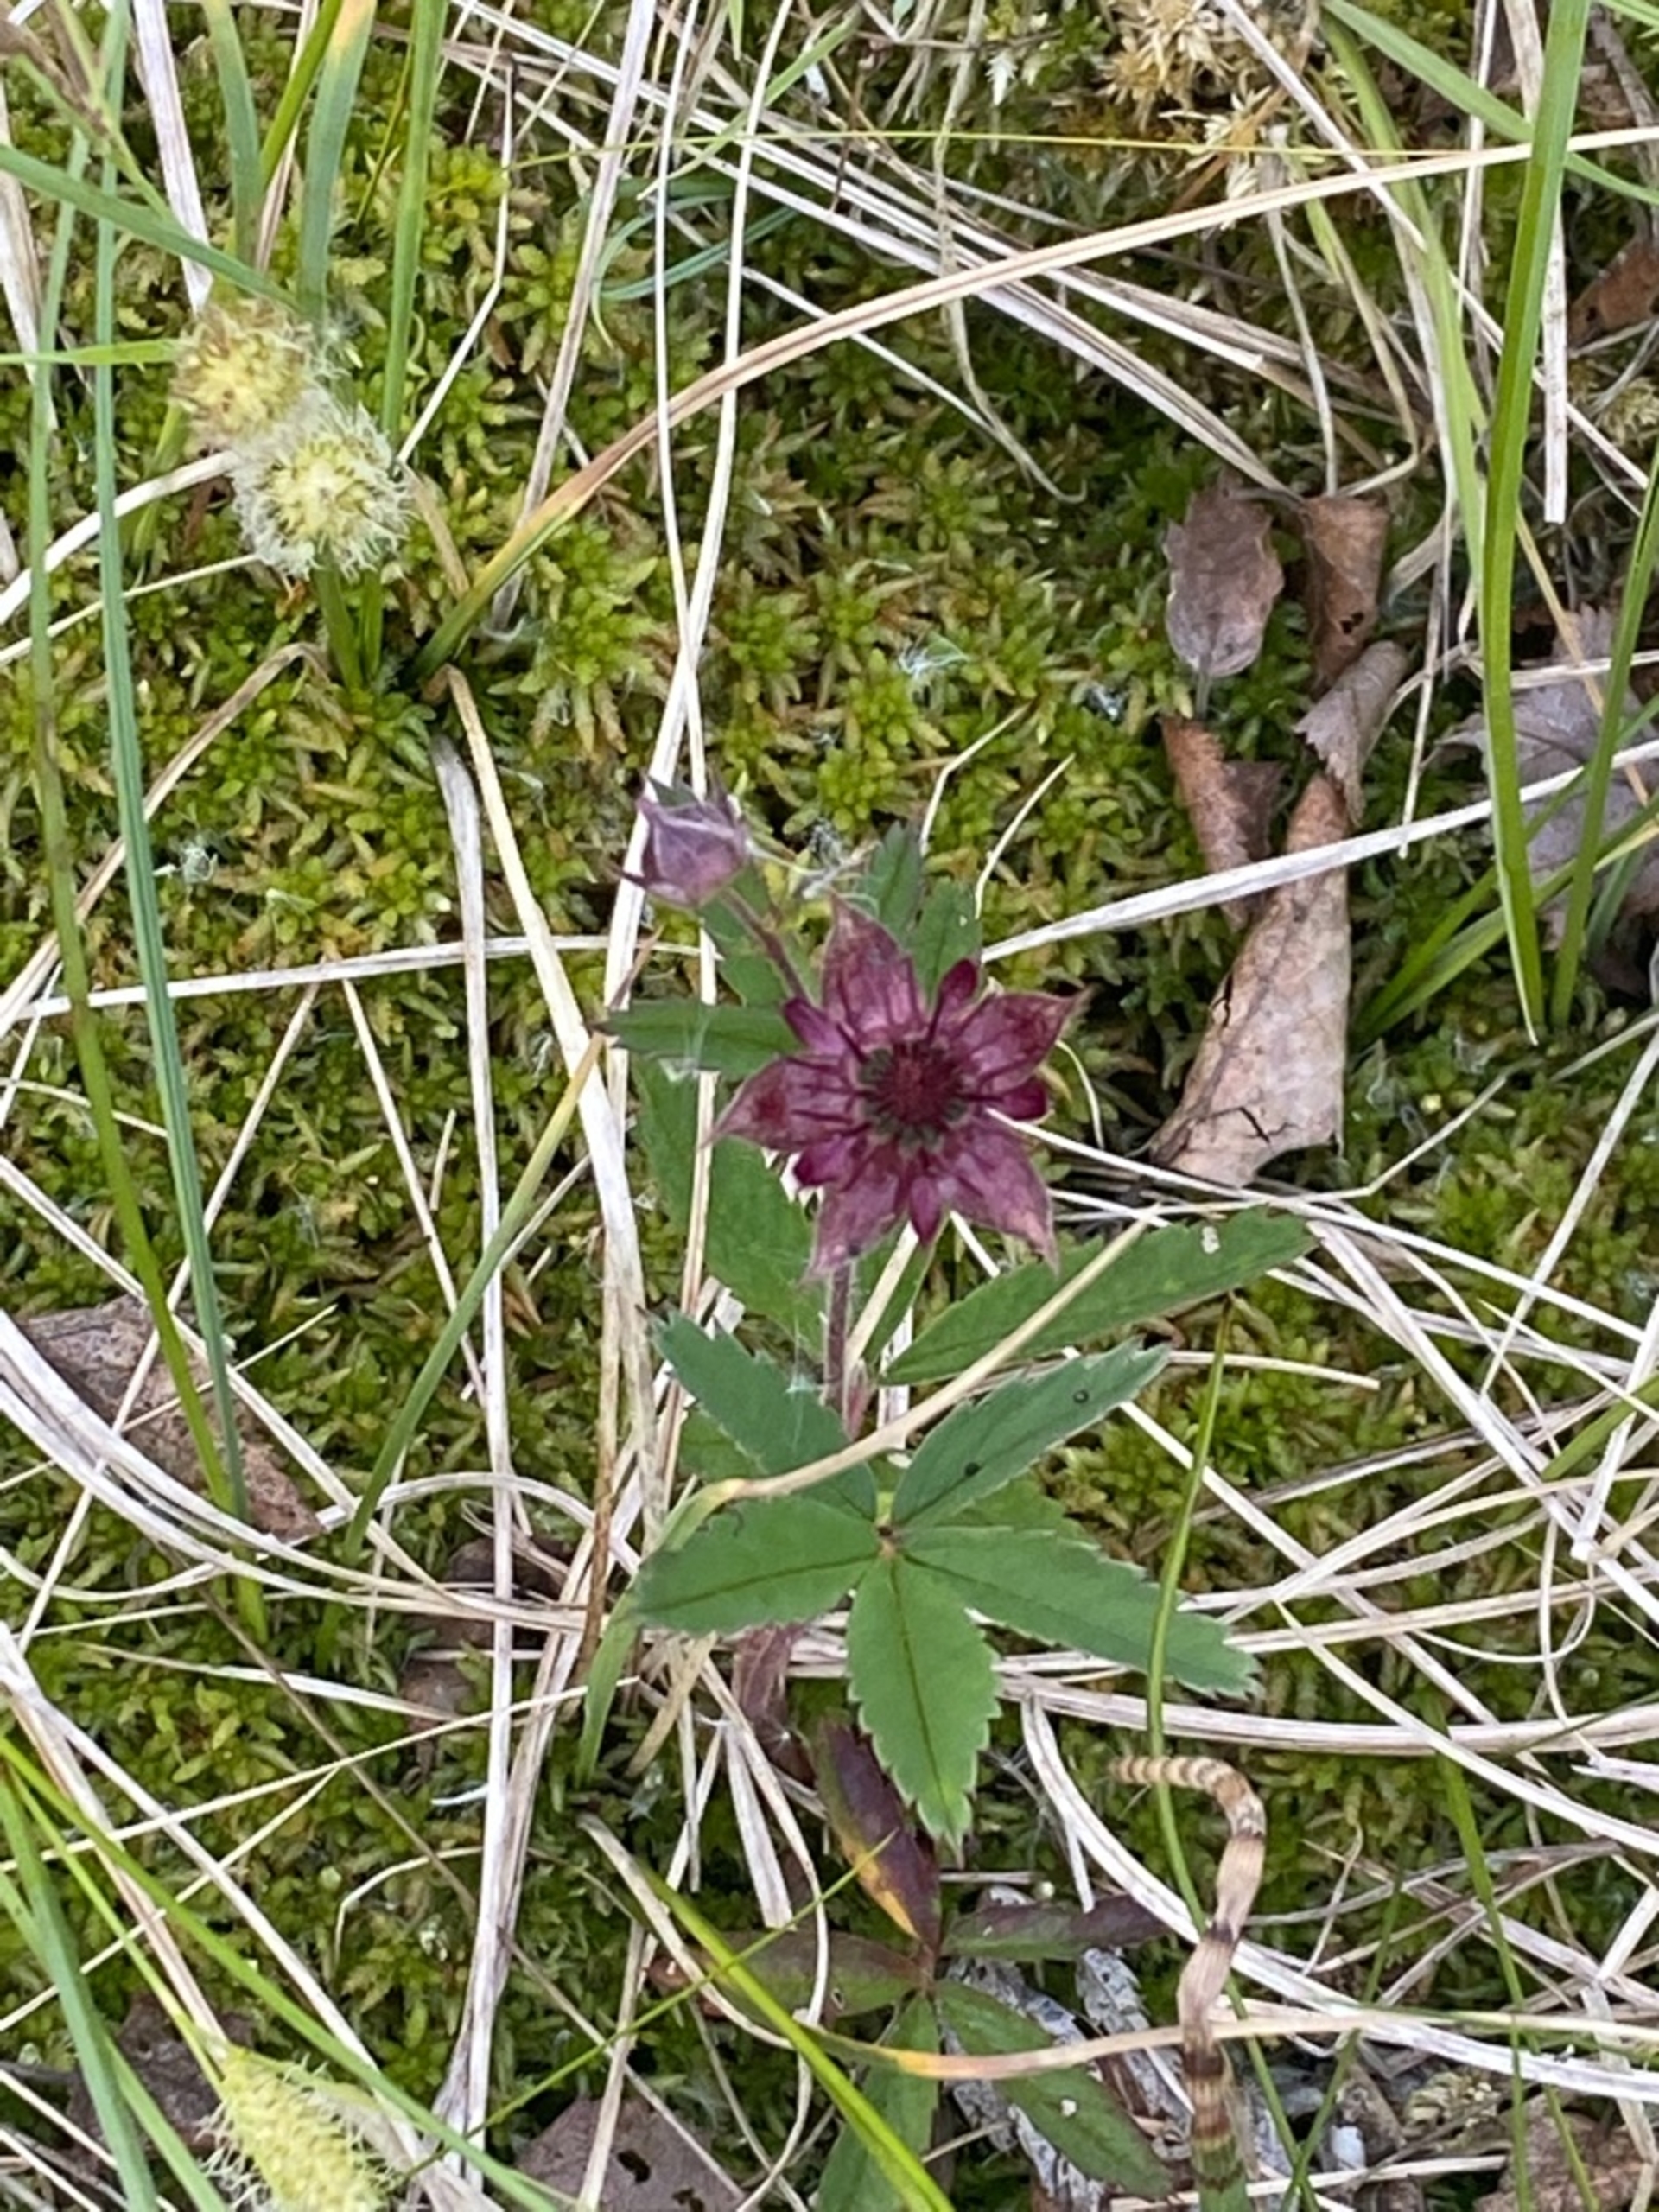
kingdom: Plantae
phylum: Tracheophyta
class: Magnoliopsida
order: Rosales
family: Rosaceae
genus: Comarum
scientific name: Comarum palustre
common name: Kragefod
